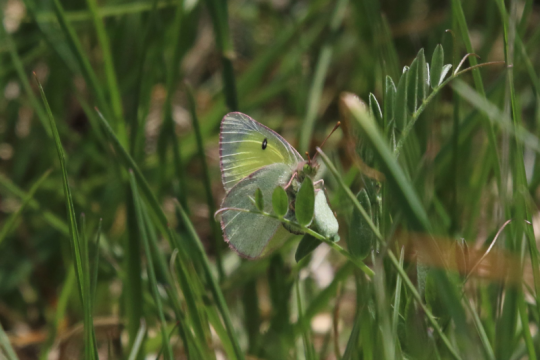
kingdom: Animalia
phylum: Arthropoda
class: Insecta
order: Lepidoptera
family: Pieridae
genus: Colias
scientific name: Colias philodice
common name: Clouded Sulphur
